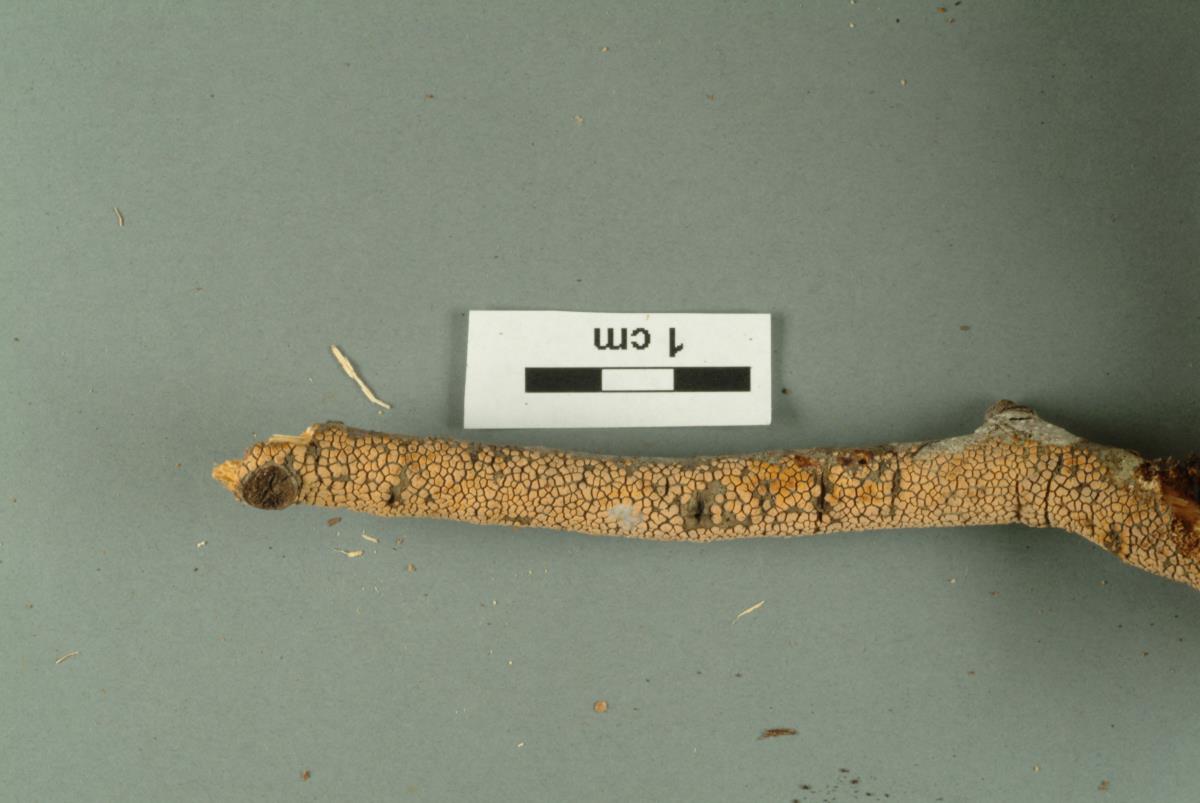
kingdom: Fungi
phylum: Basidiomycota
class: Agaricomycetes
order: Agaricales
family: Mycenaceae
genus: Mycena
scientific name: Mycena cystidiosa
